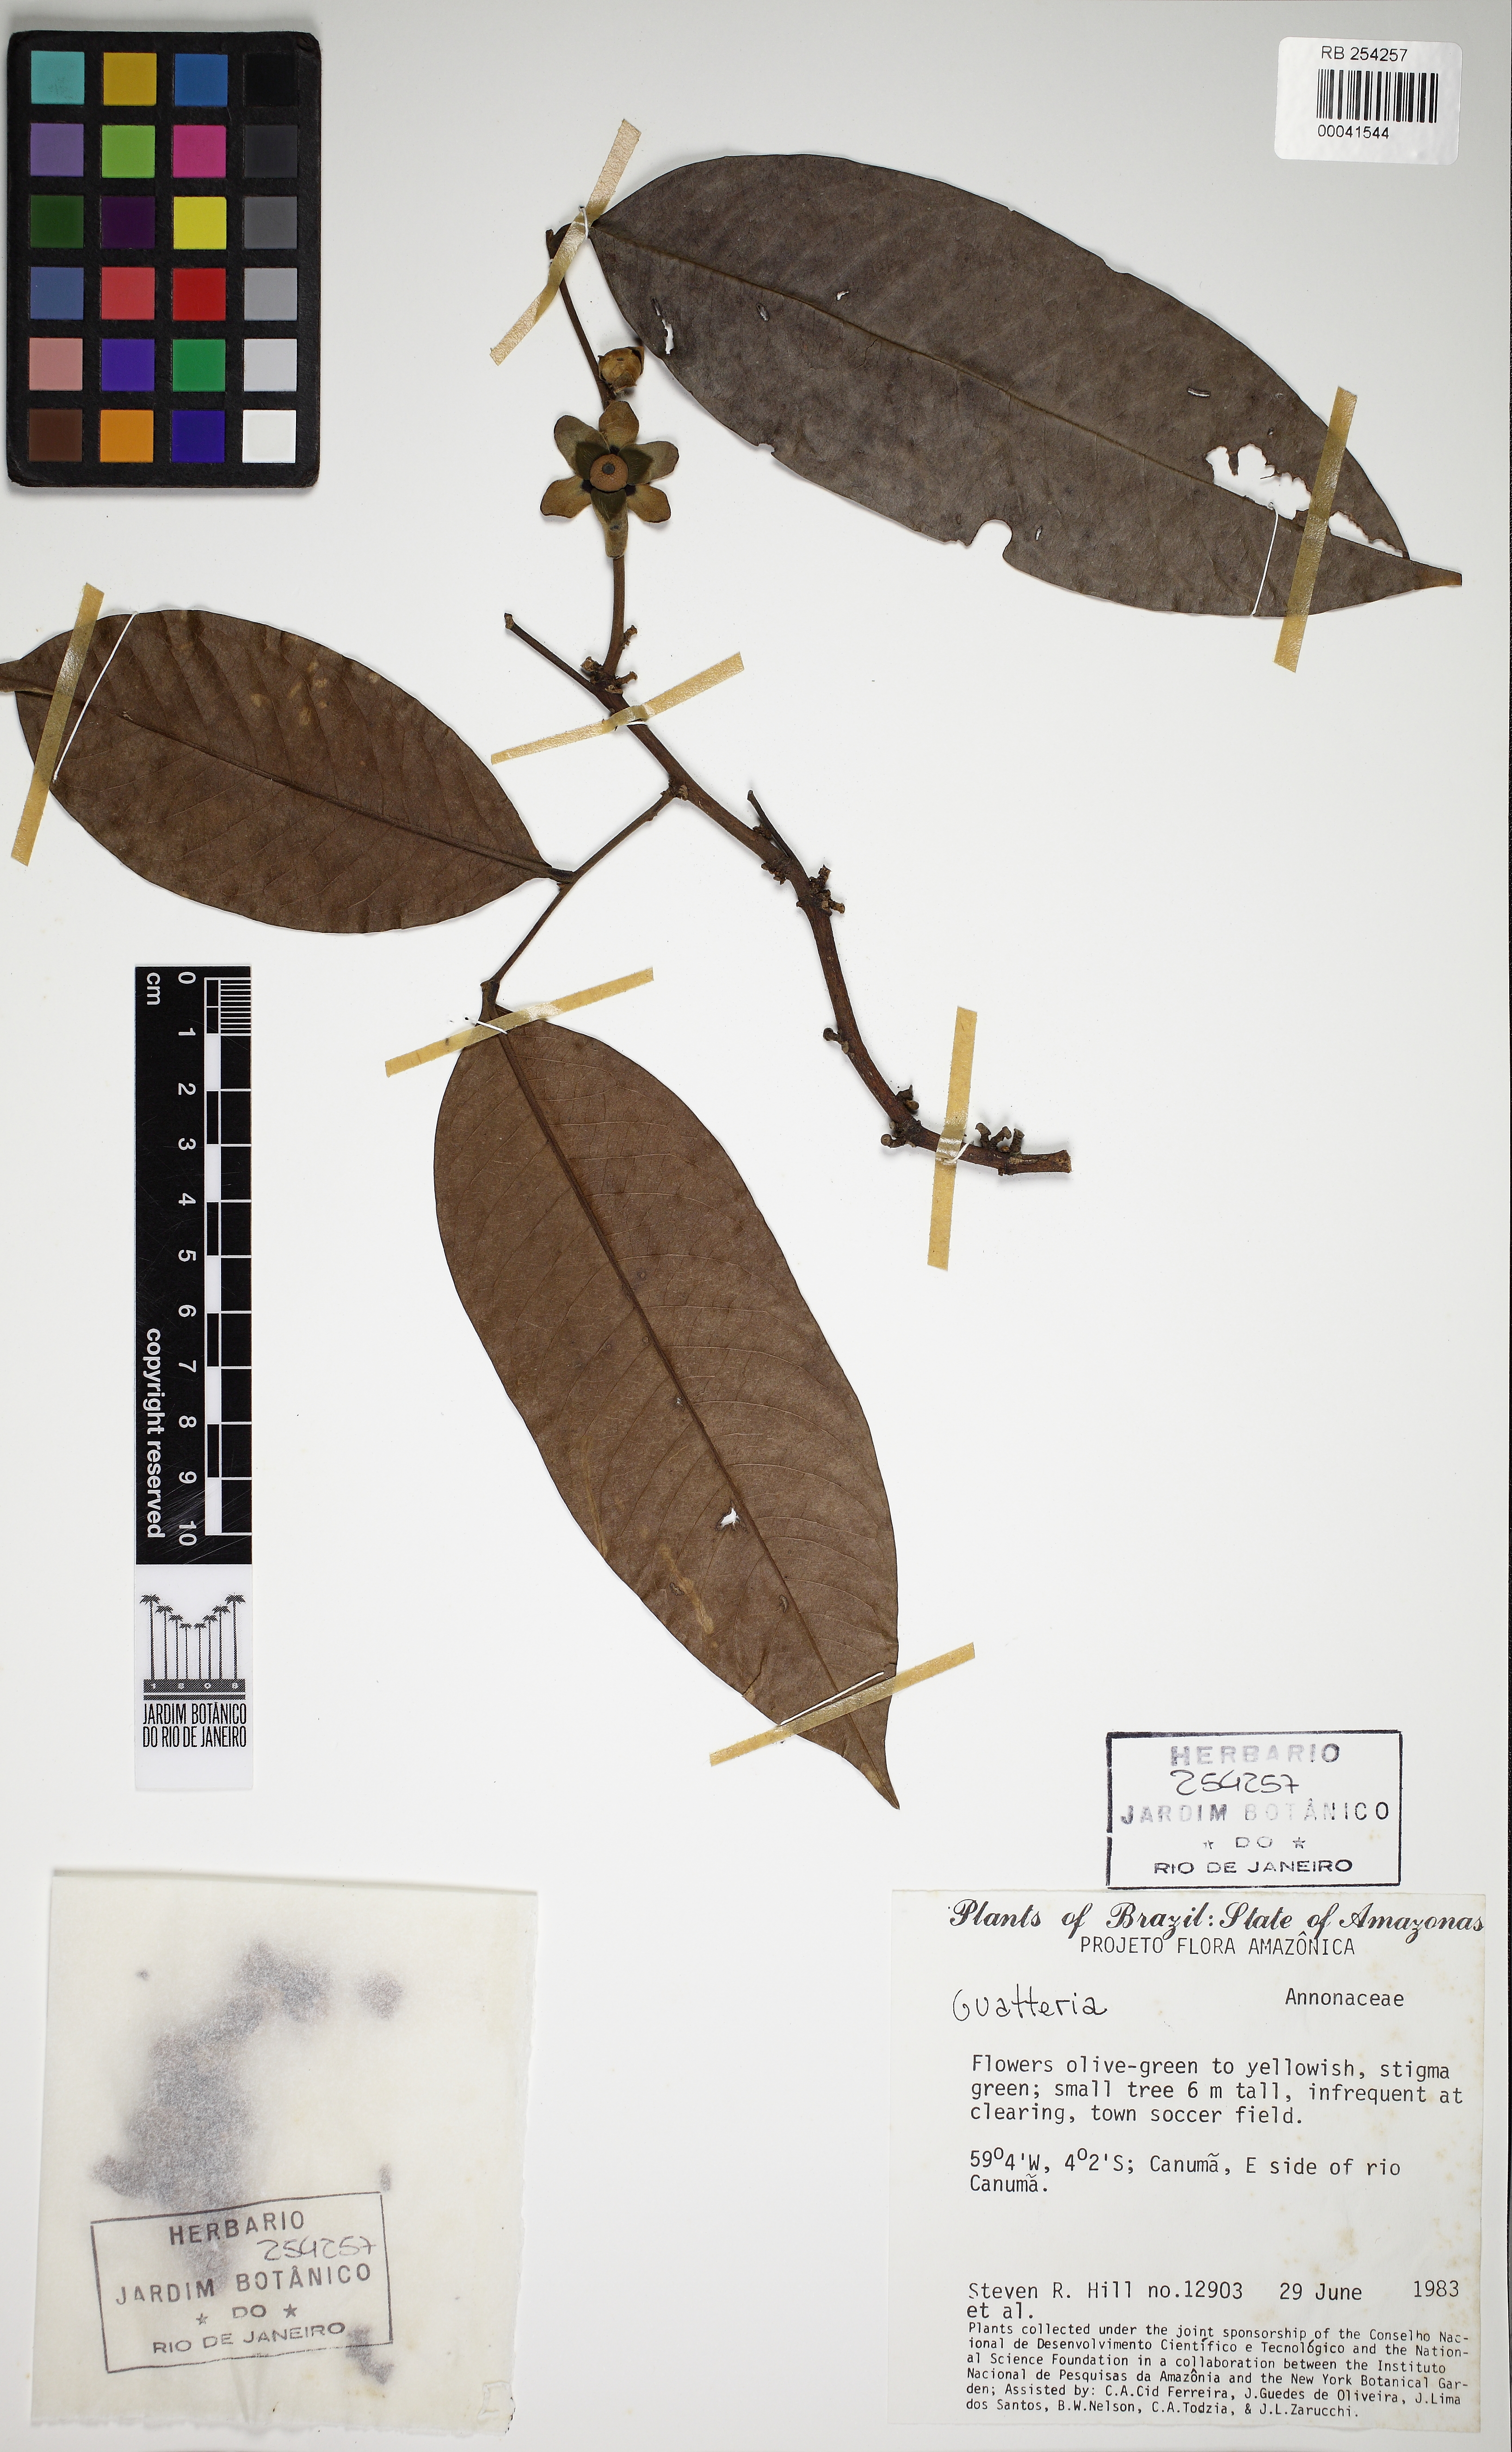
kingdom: Plantae
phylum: Tracheophyta
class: Magnoliopsida
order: Magnoliales
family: Annonaceae
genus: Guatteria
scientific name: Guatteria scytophylla
